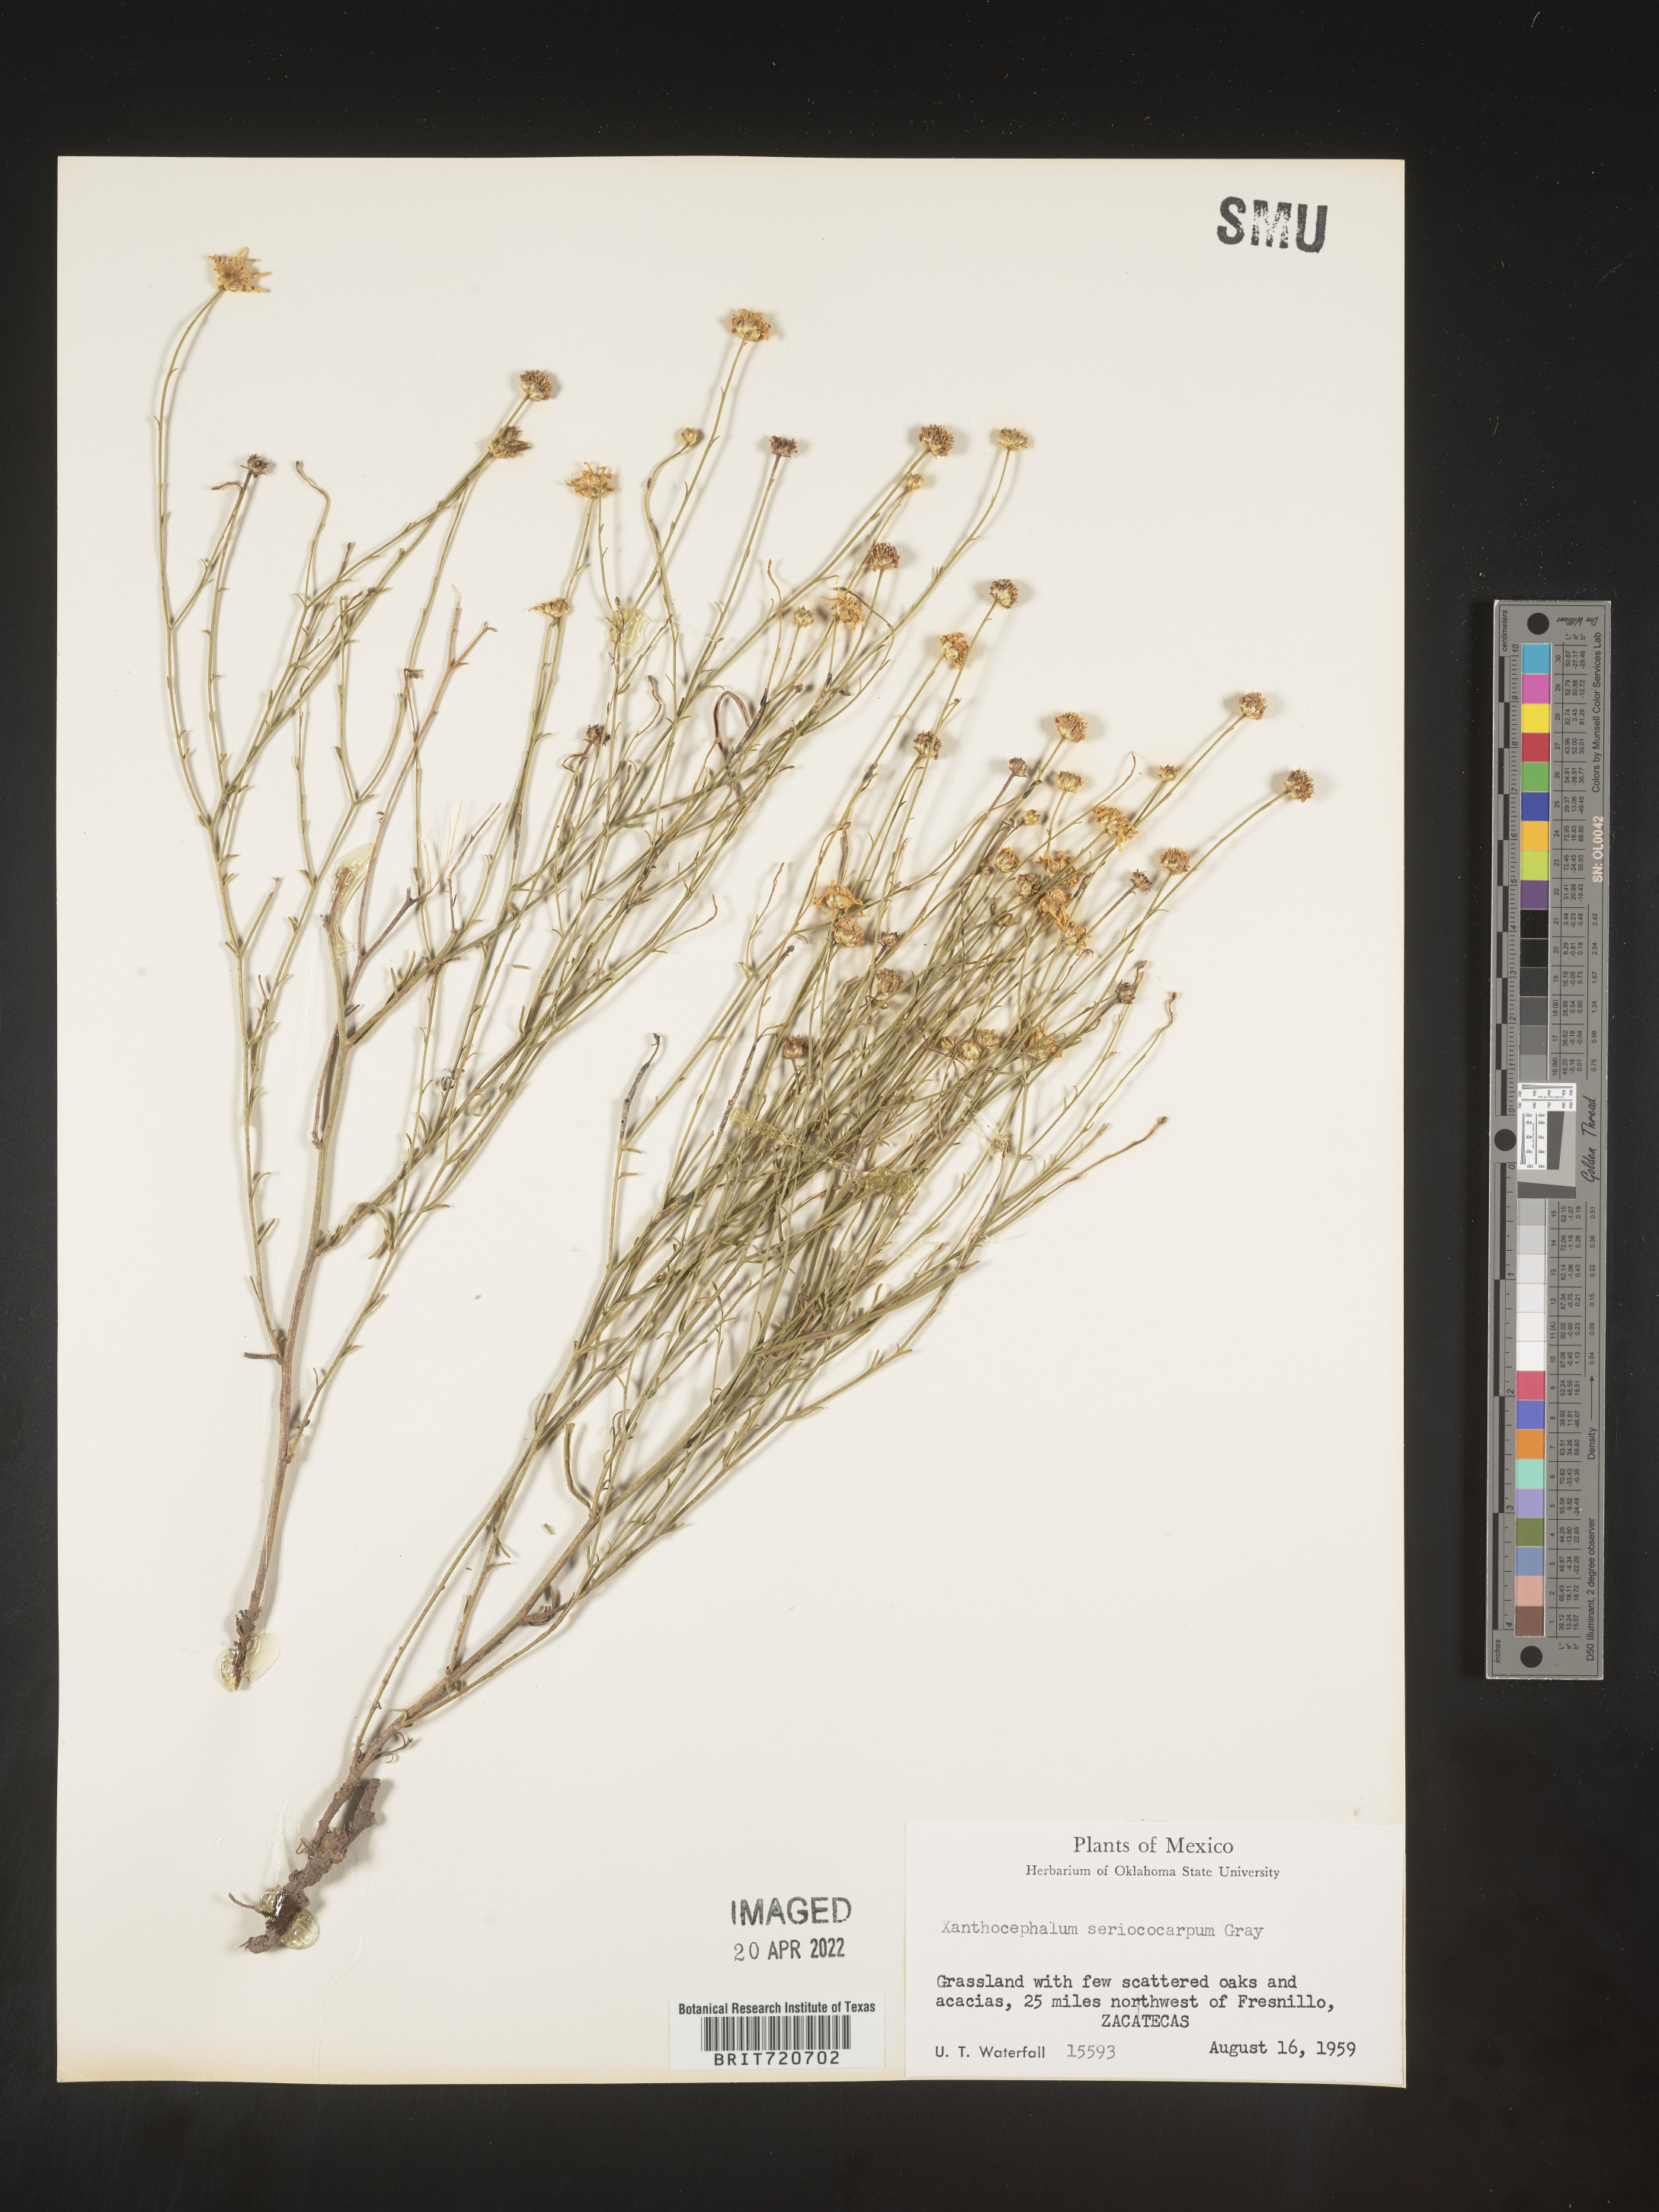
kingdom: Plantae
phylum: Tracheophyta
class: Magnoliopsida
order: Asterales
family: Asteraceae
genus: Gutierrezia
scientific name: Gutierrezia sericocarpa
